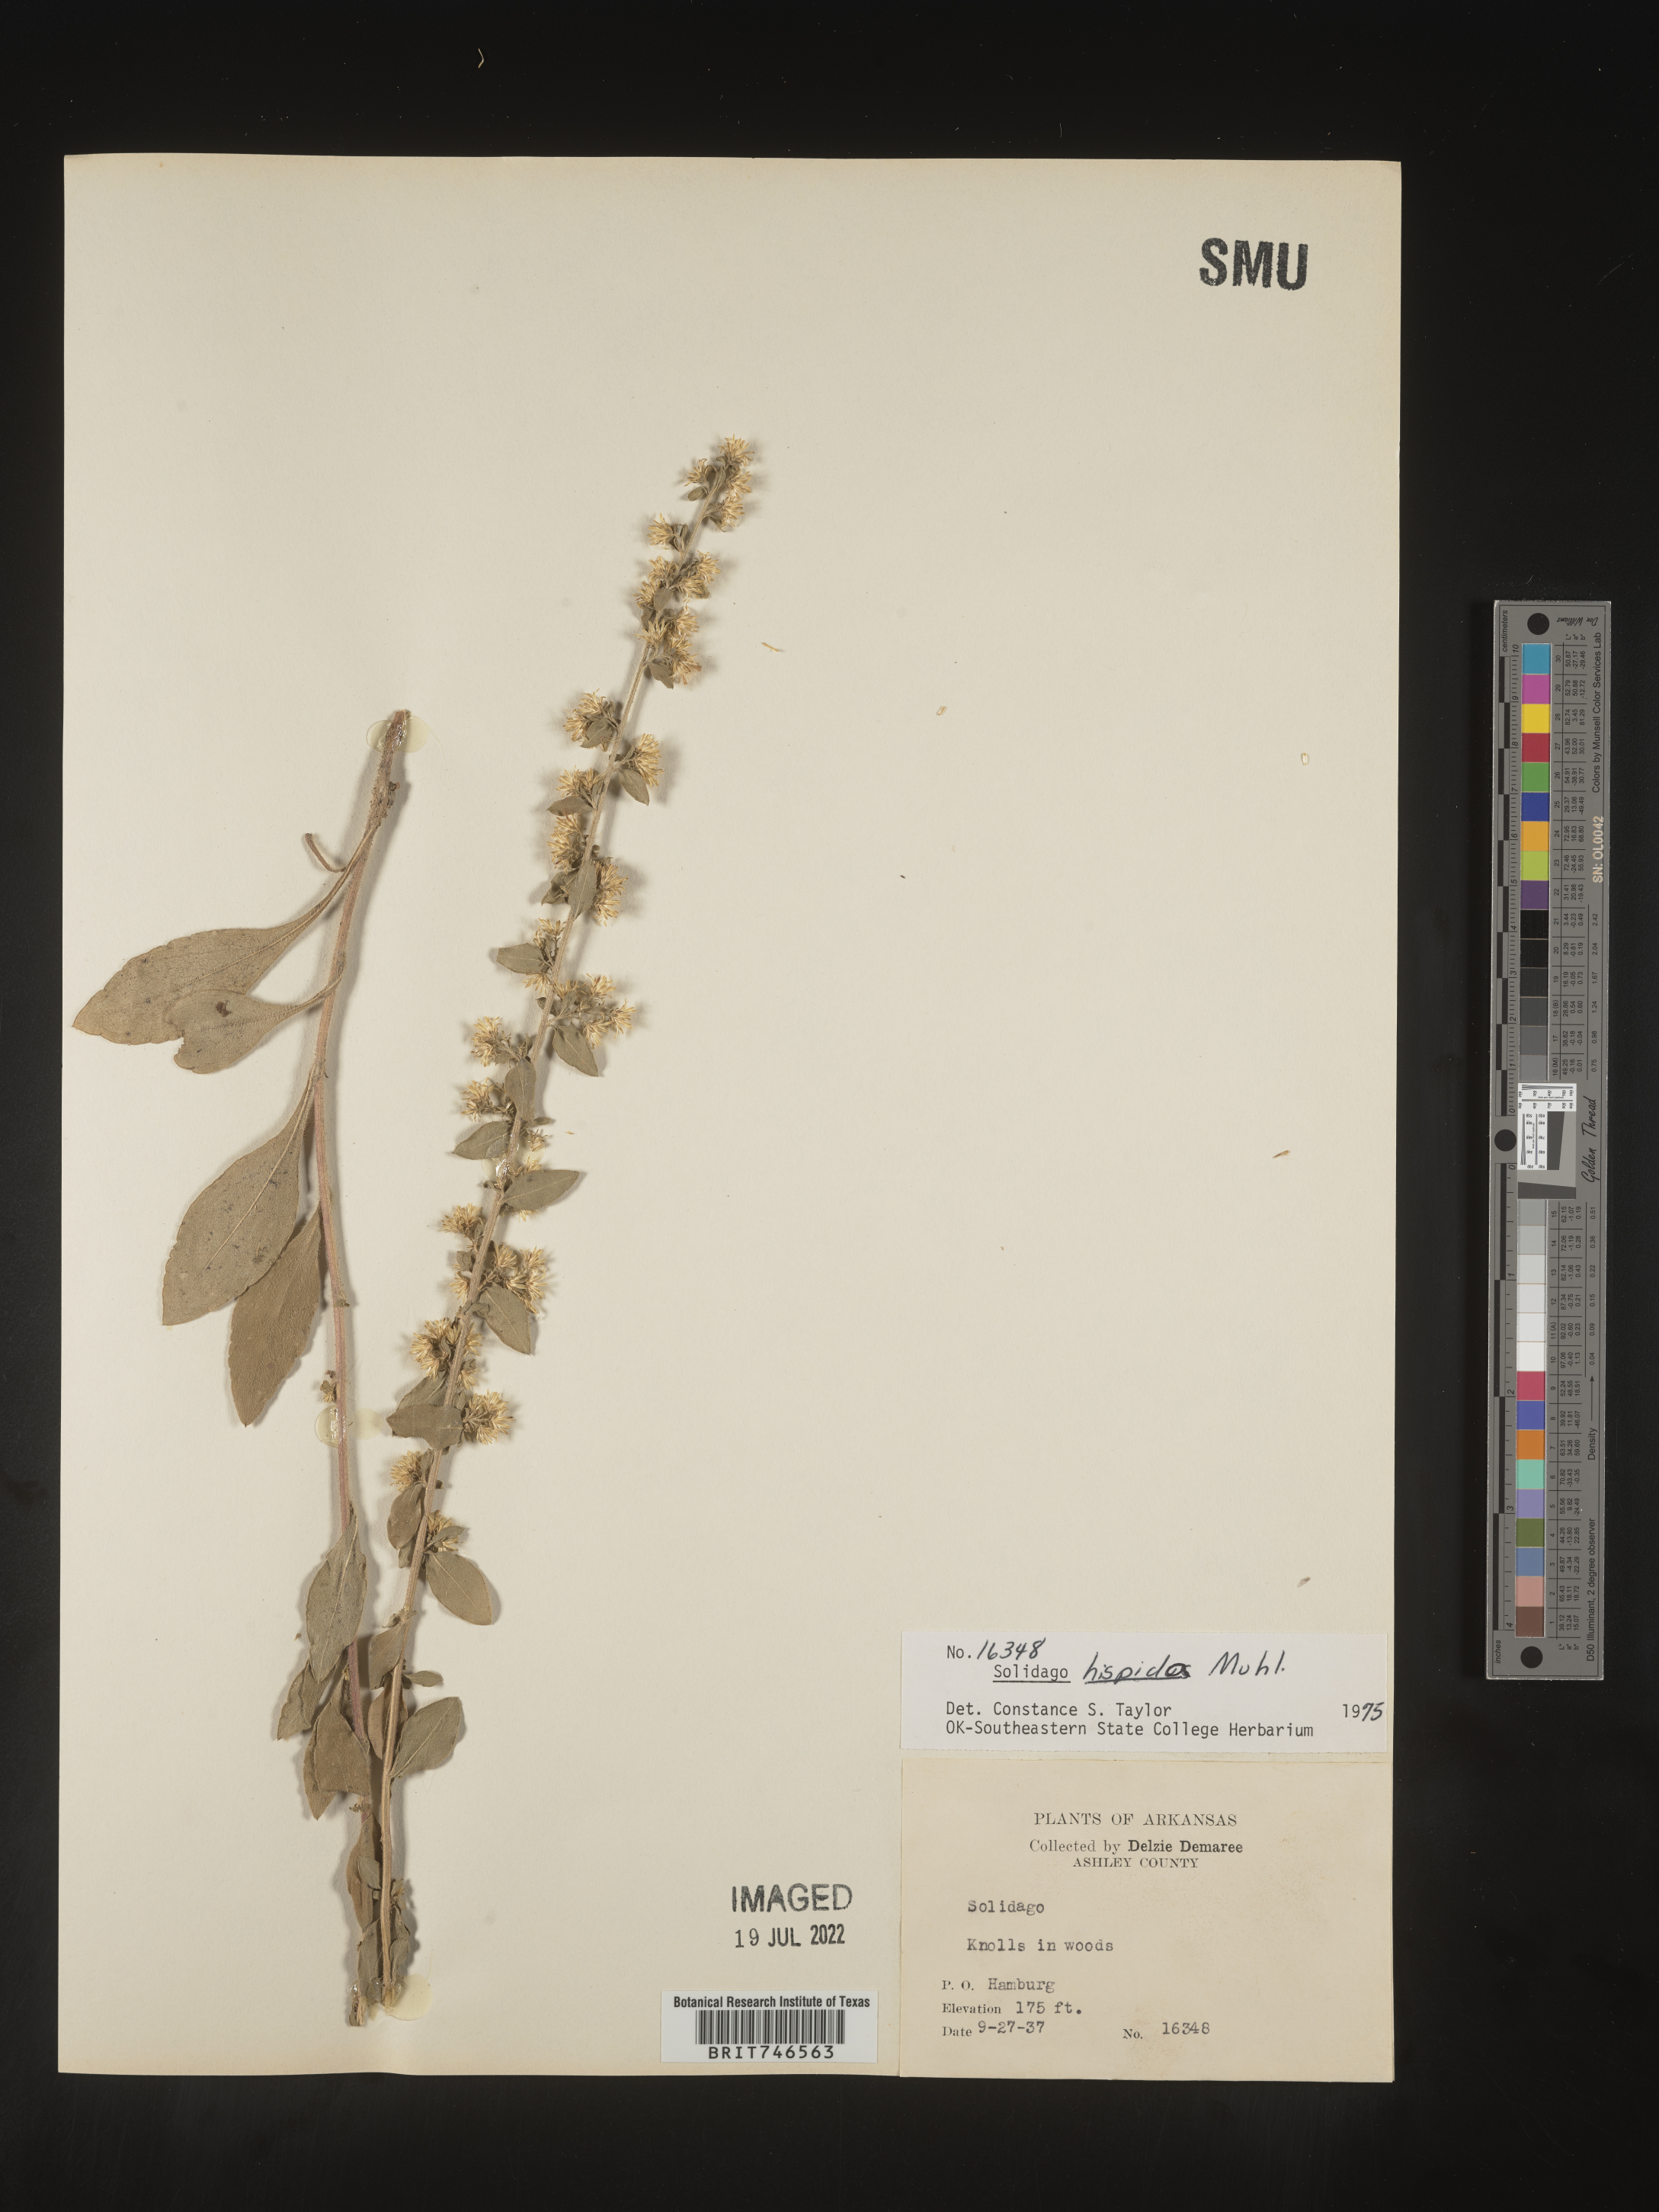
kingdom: Plantae
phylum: Tracheophyta
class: Magnoliopsida
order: Asterales
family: Asteraceae
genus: Solidago
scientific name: Solidago hispida
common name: Hairy goldenrod
